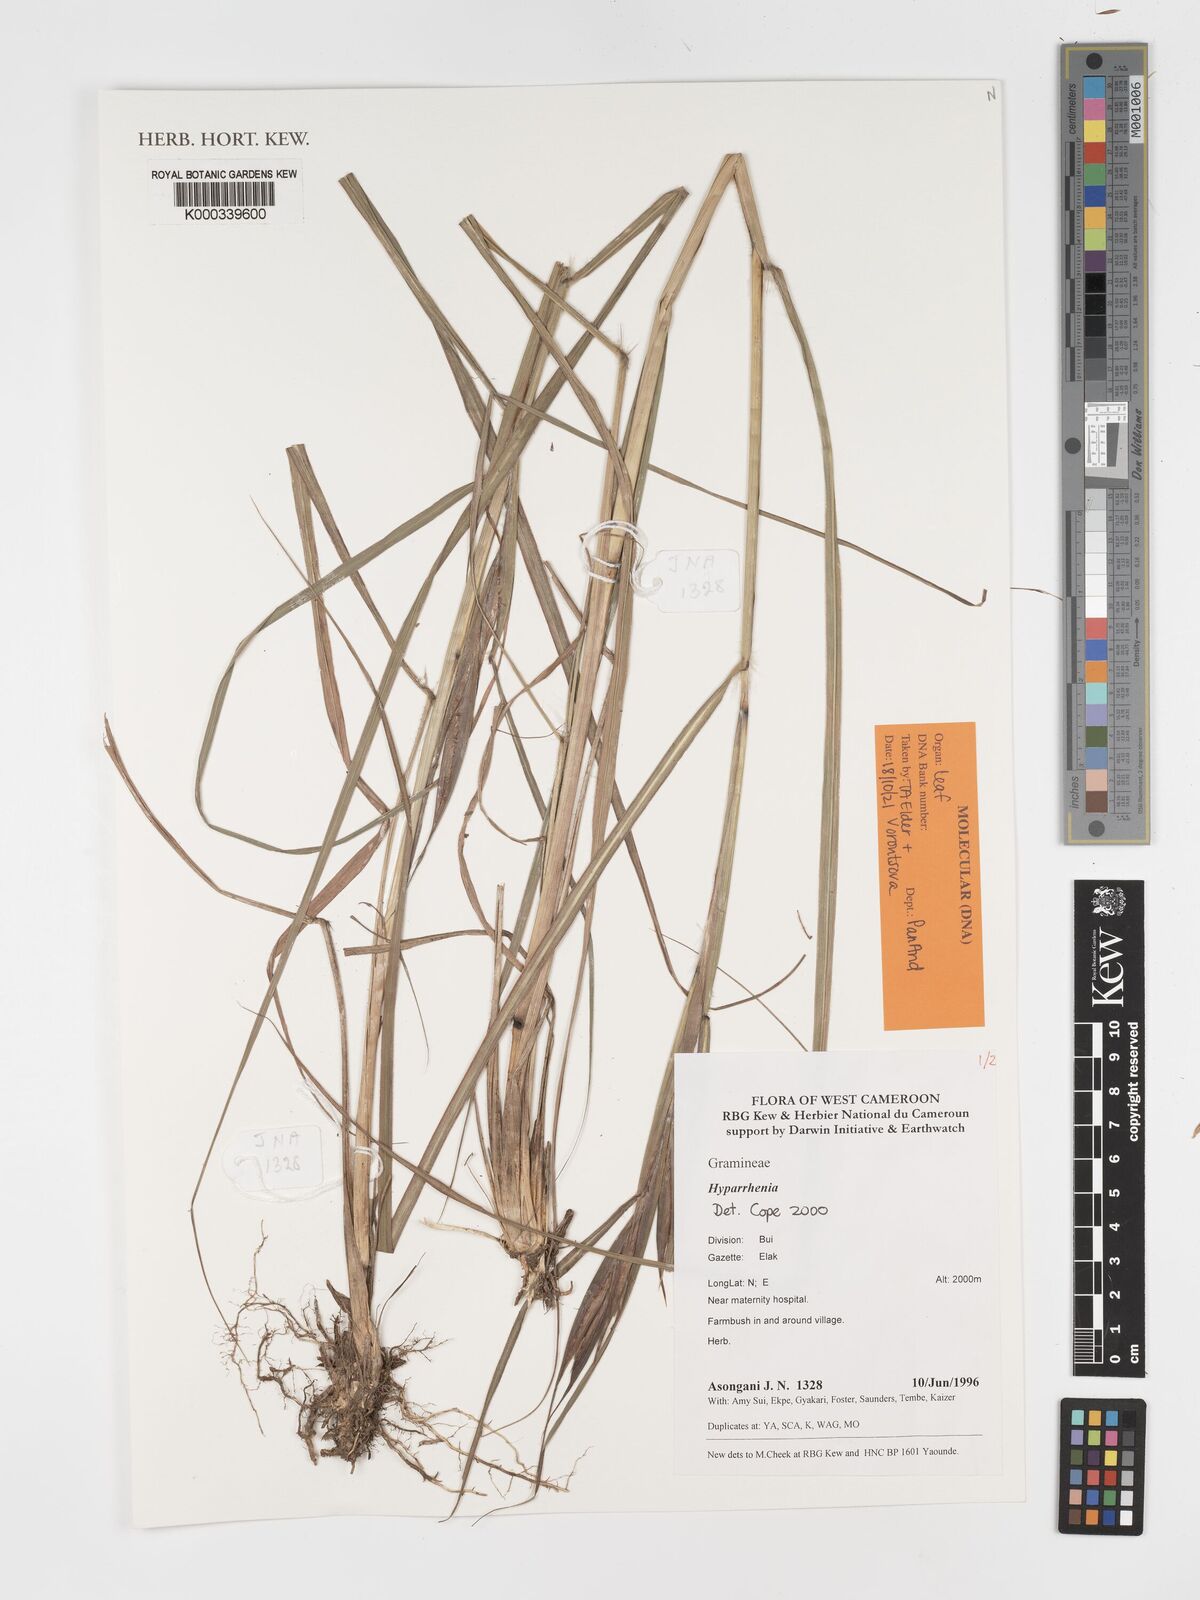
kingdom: Plantae
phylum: Tracheophyta
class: Liliopsida
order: Poales
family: Poaceae
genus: Hyparrhenia
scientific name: Hyparrhenia
